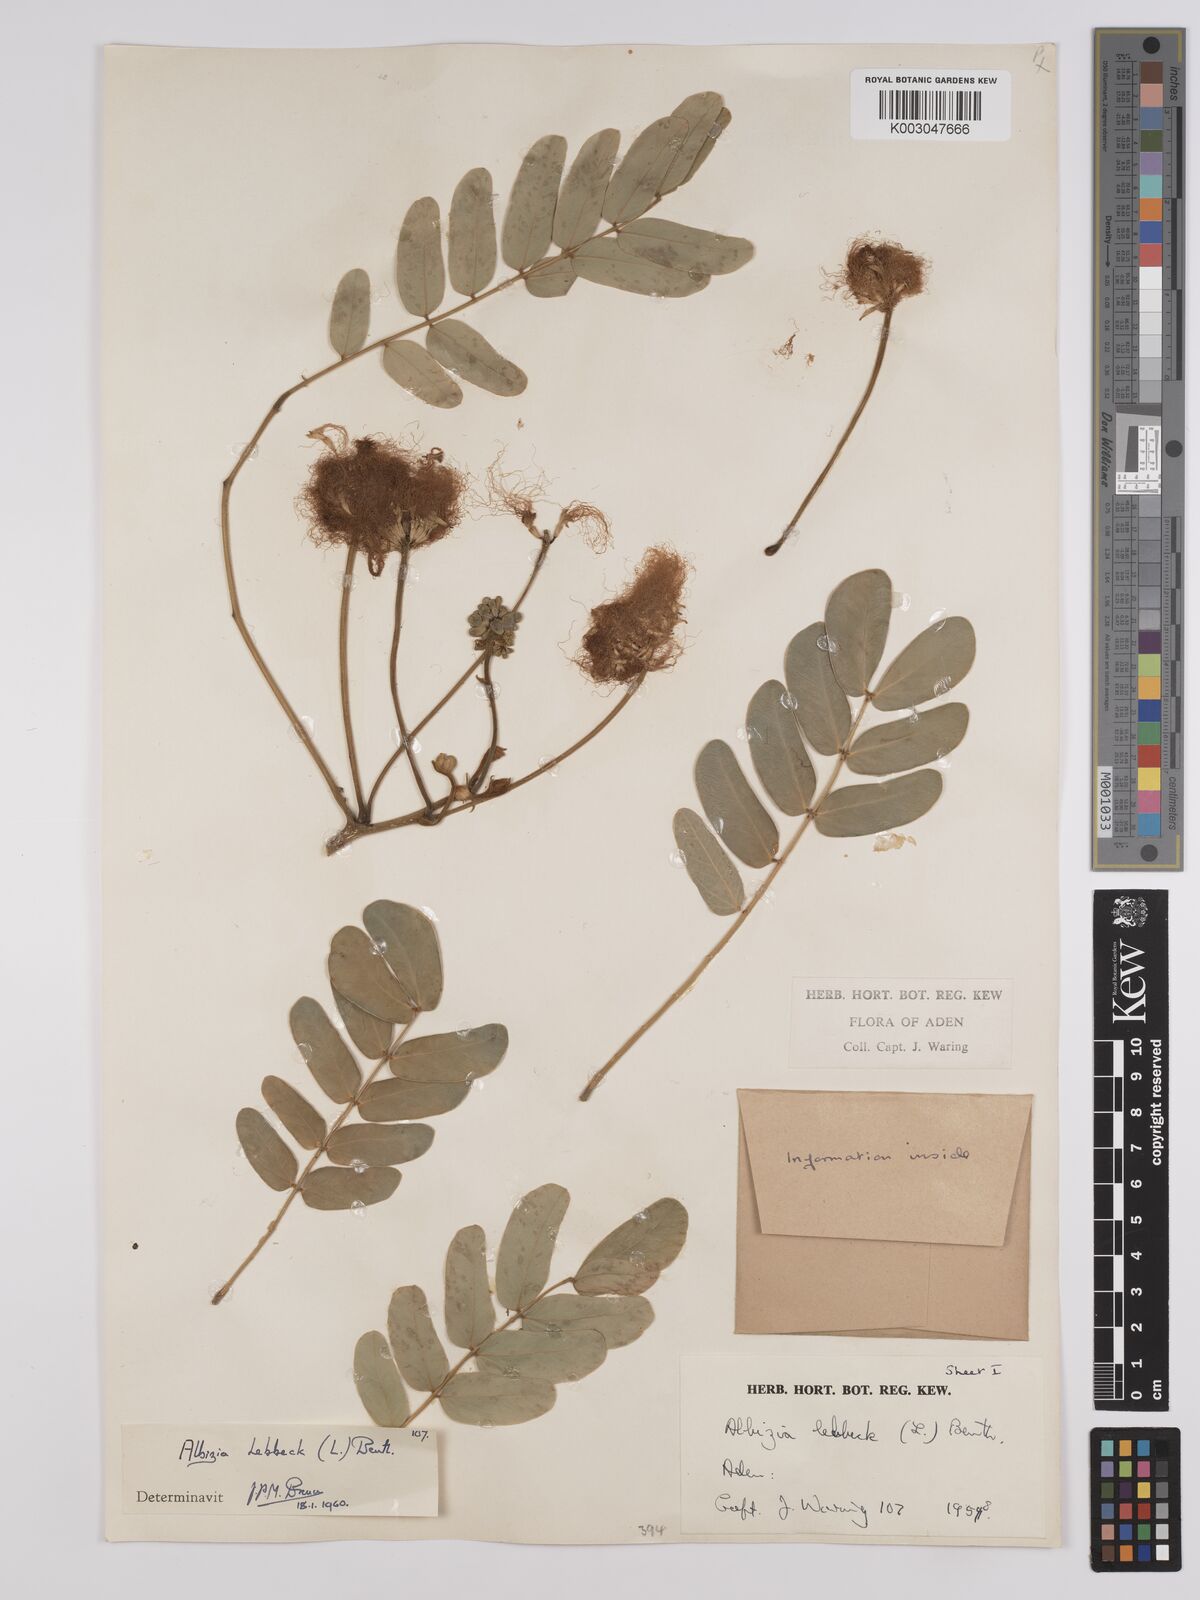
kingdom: Plantae
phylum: Tracheophyta
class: Magnoliopsida
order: Fabales
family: Fabaceae
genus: Albizia
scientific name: Albizia lebbeck
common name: Woman's tongue
